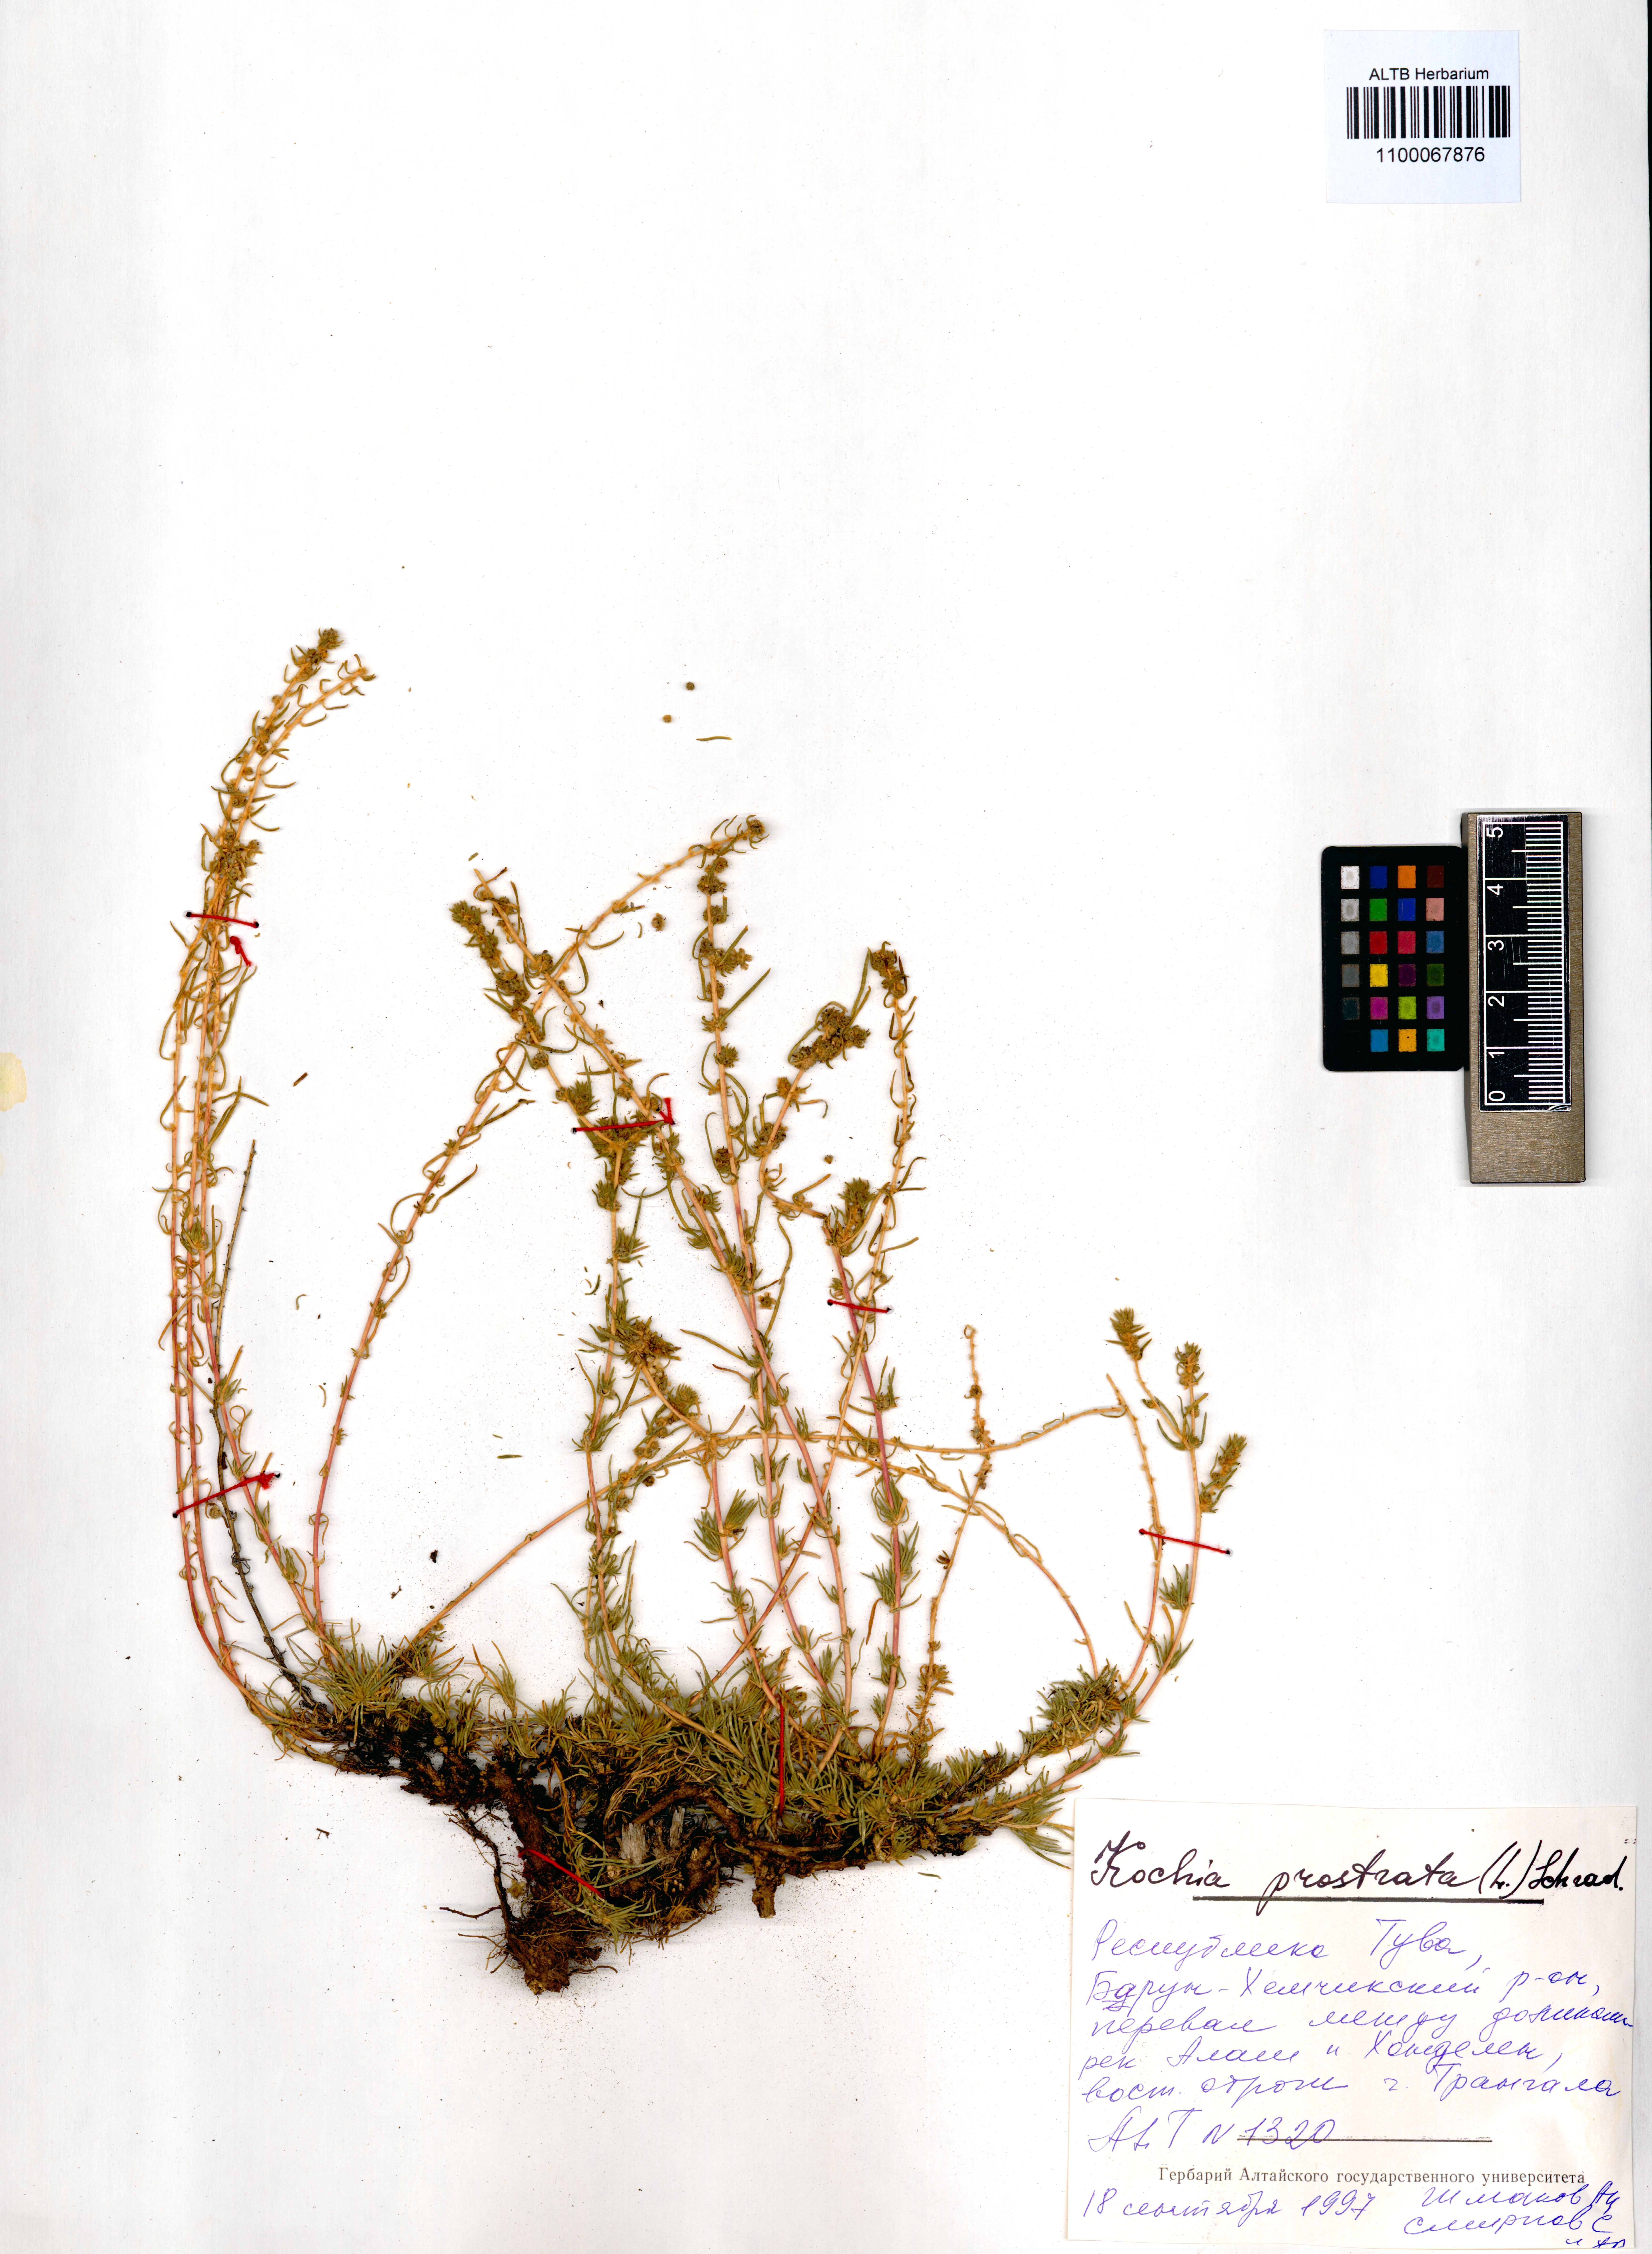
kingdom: Plantae
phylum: Tracheophyta
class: Magnoliopsida
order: Caryophyllales
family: Amaranthaceae
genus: Bassia
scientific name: Bassia prostrata
